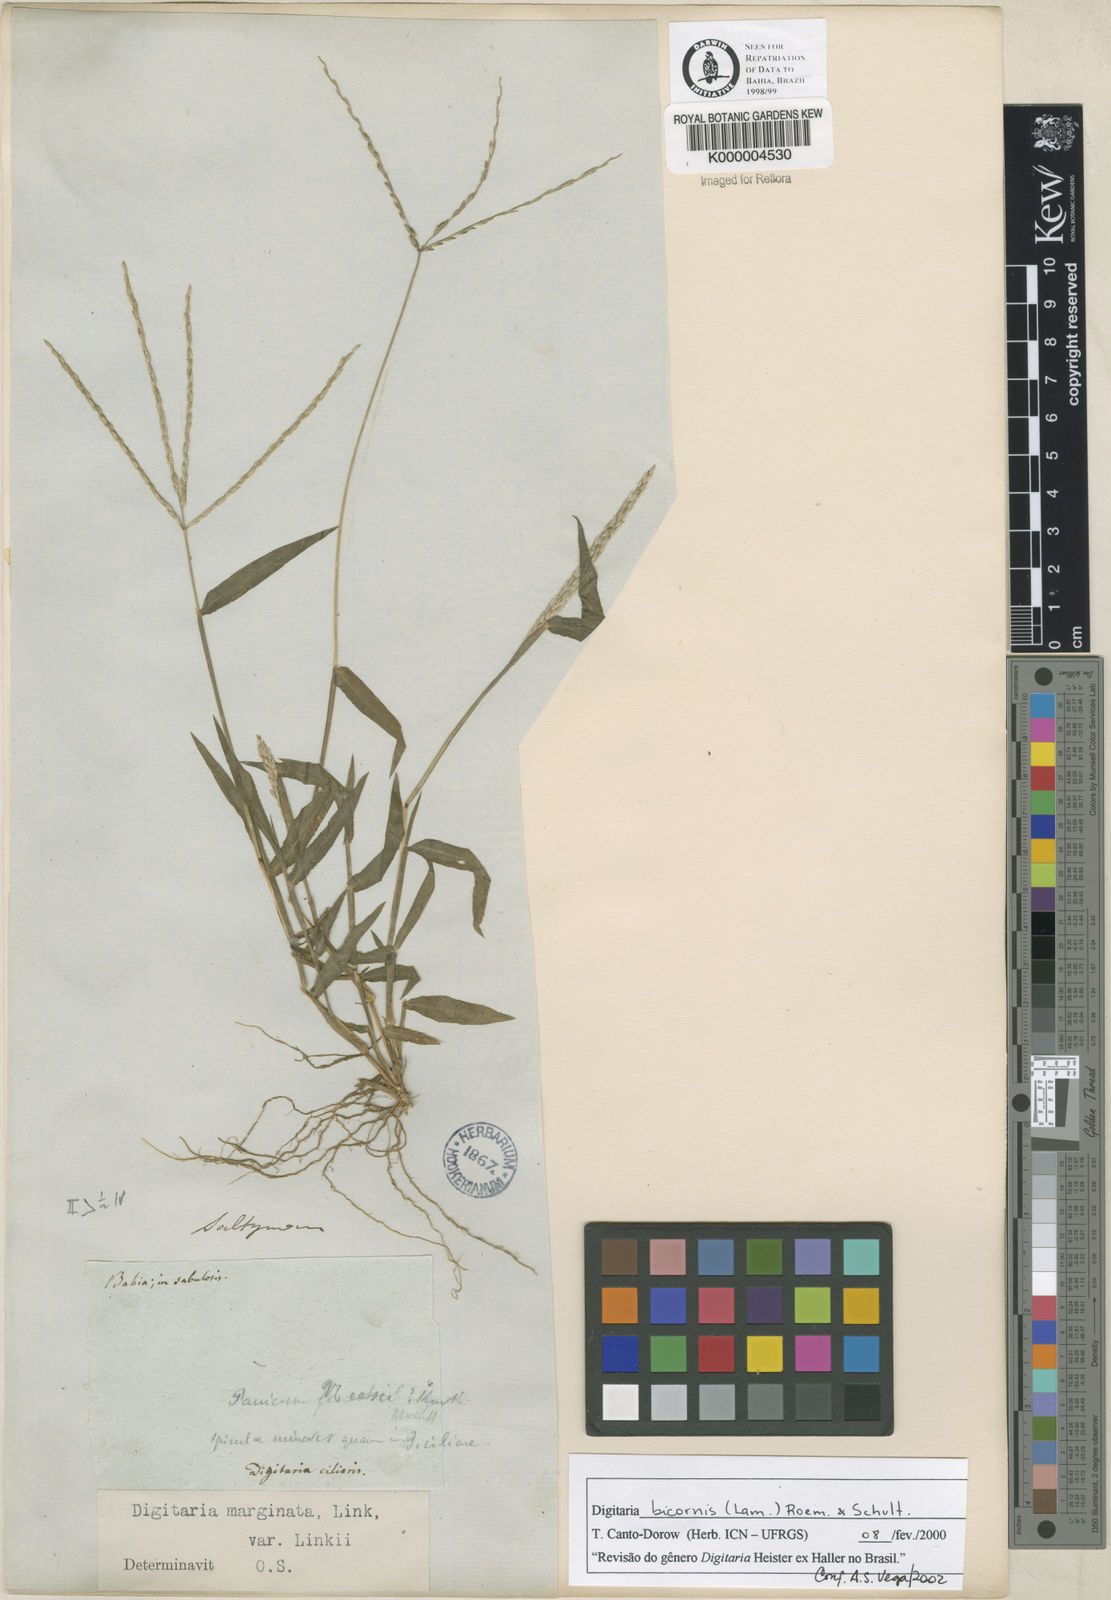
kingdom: Plantae
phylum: Tracheophyta
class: Liliopsida
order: Poales
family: Poaceae
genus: Digitaria
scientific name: Digitaria ciliaris
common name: Tropical finger-grass
